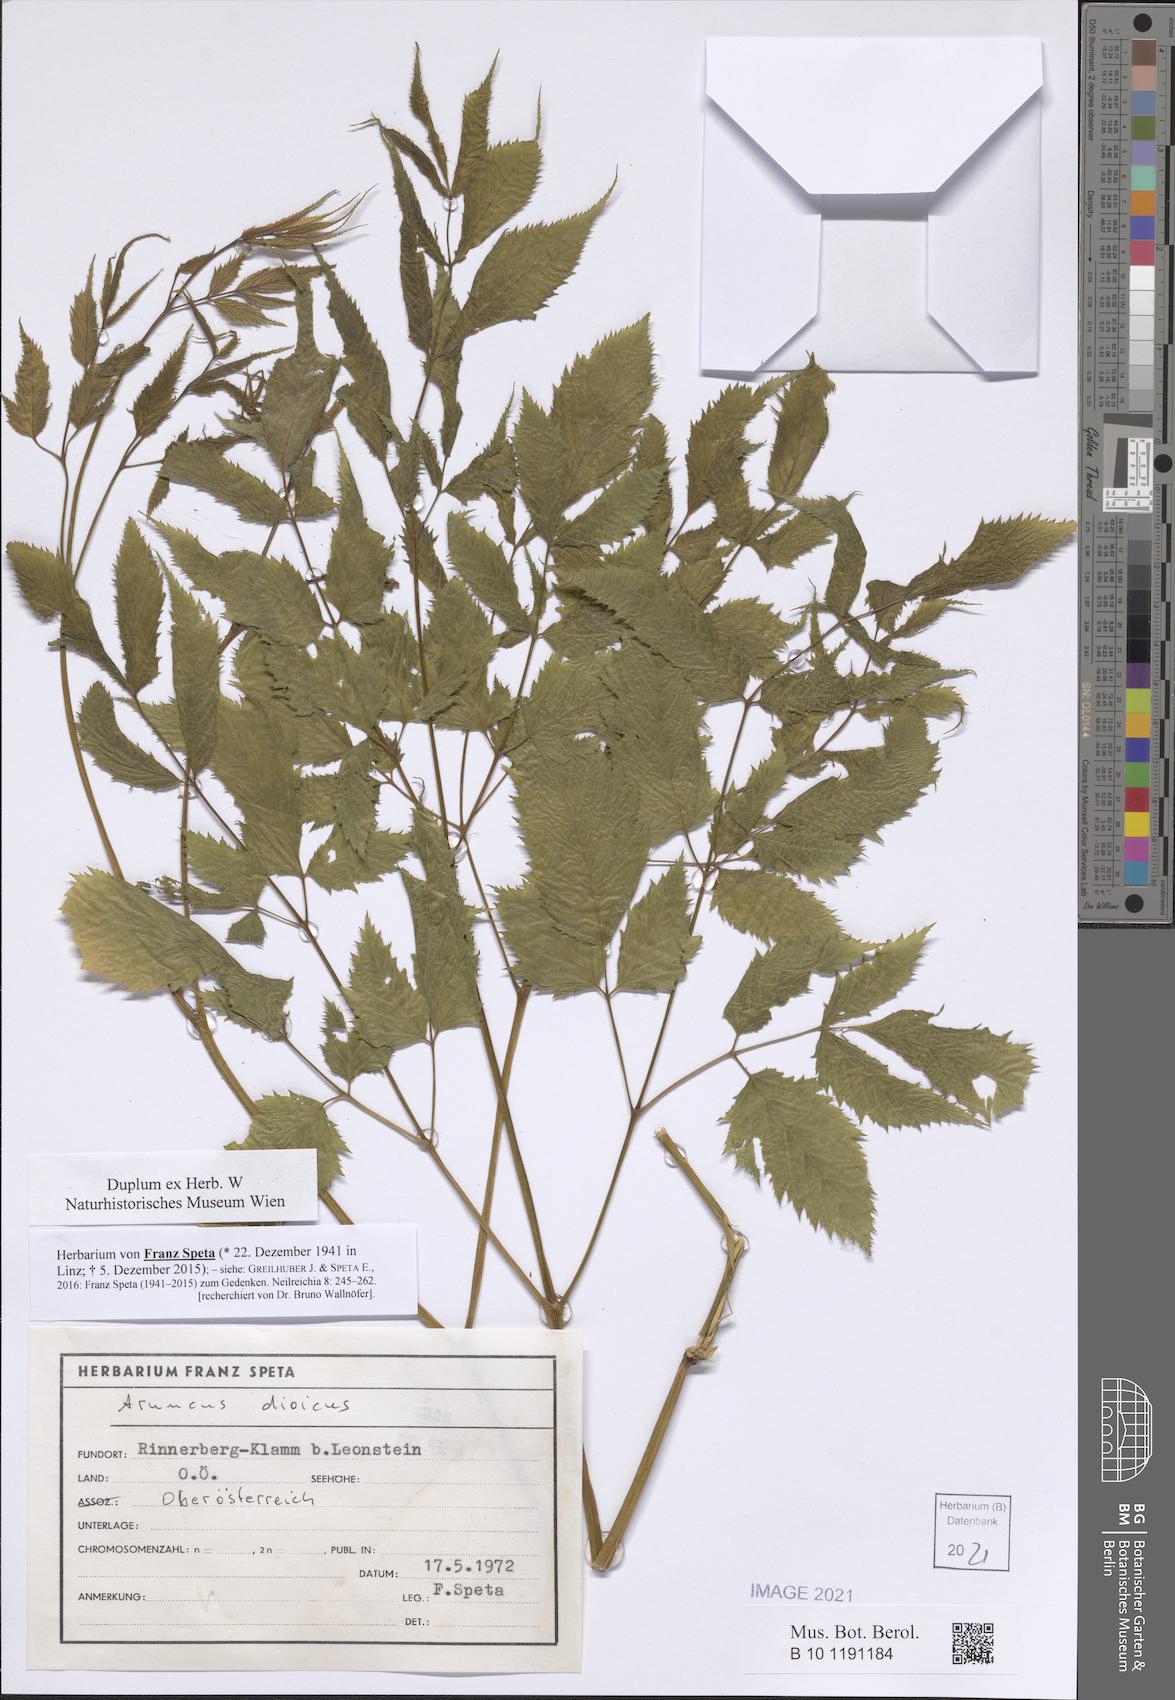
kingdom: Plantae
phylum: Tracheophyta
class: Magnoliopsida
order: Rosales
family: Rosaceae
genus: Aruncus
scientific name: Aruncus dioicus
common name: Buck's-beard
